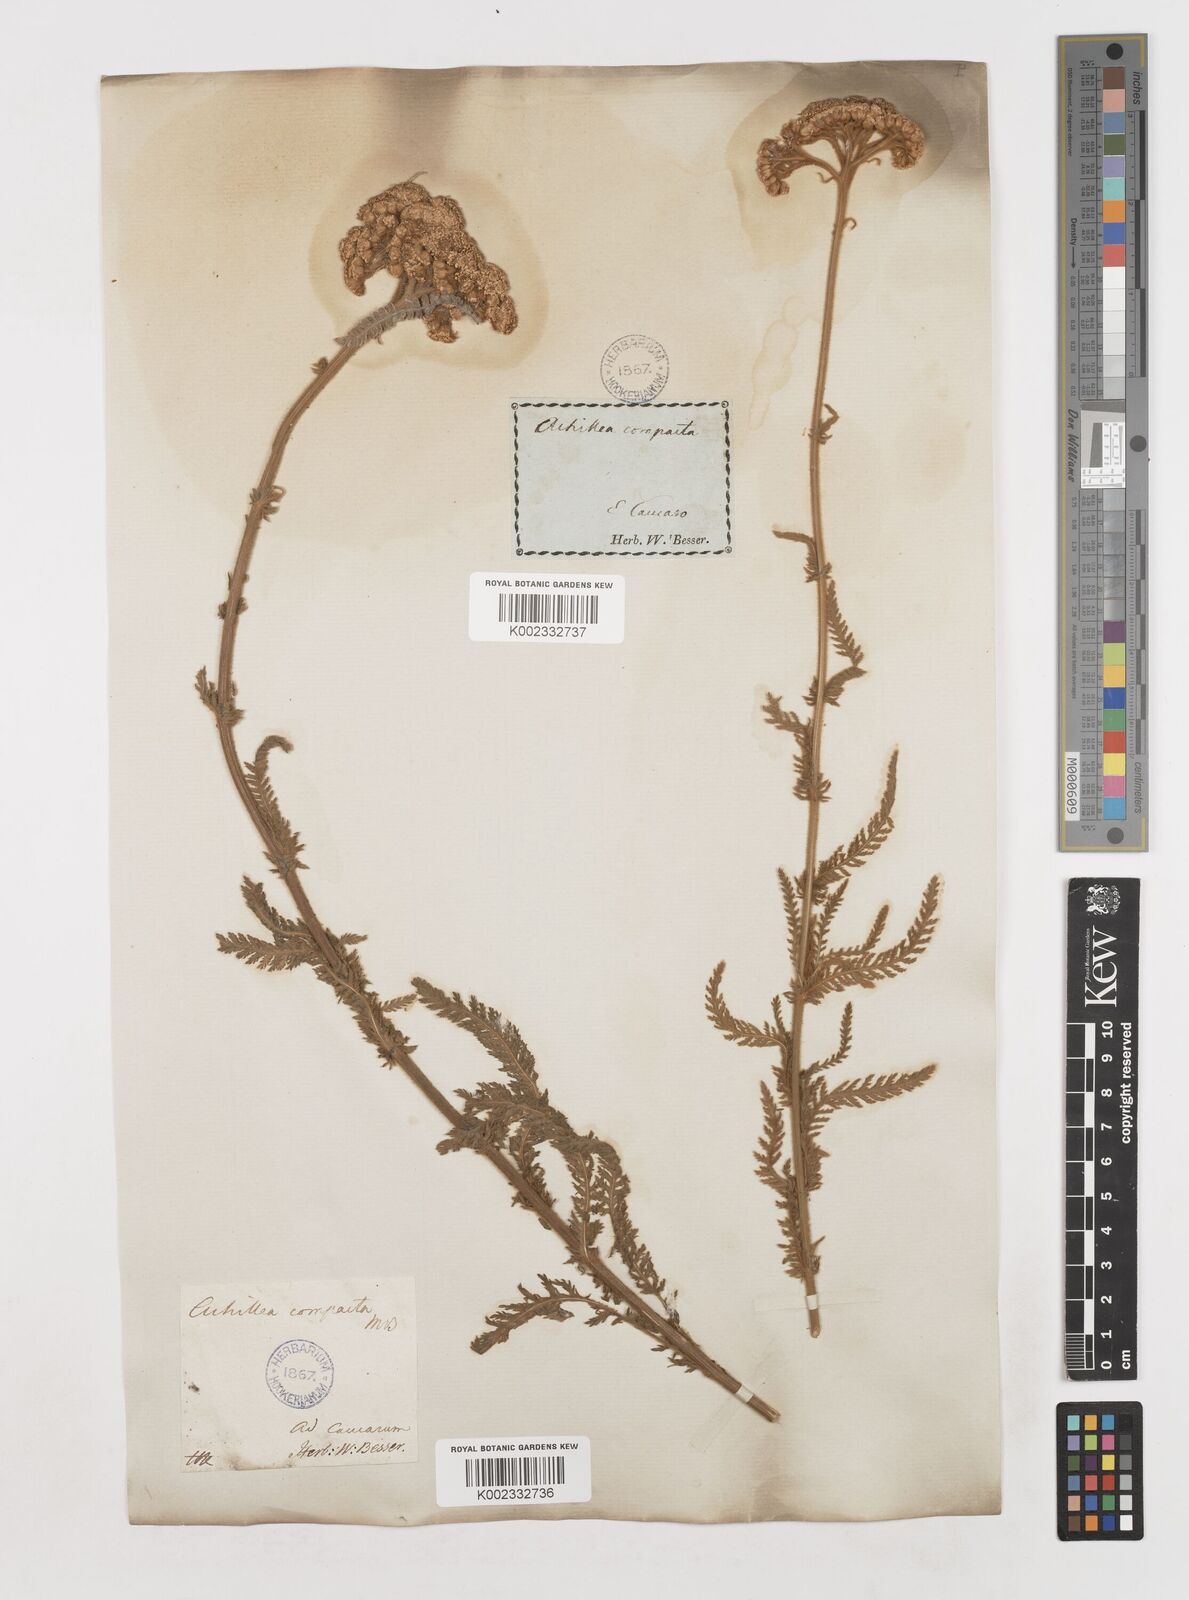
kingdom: Plantae
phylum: Tracheophyta
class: Magnoliopsida
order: Asterales
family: Asteraceae
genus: Achillea
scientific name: Achillea coarctata
